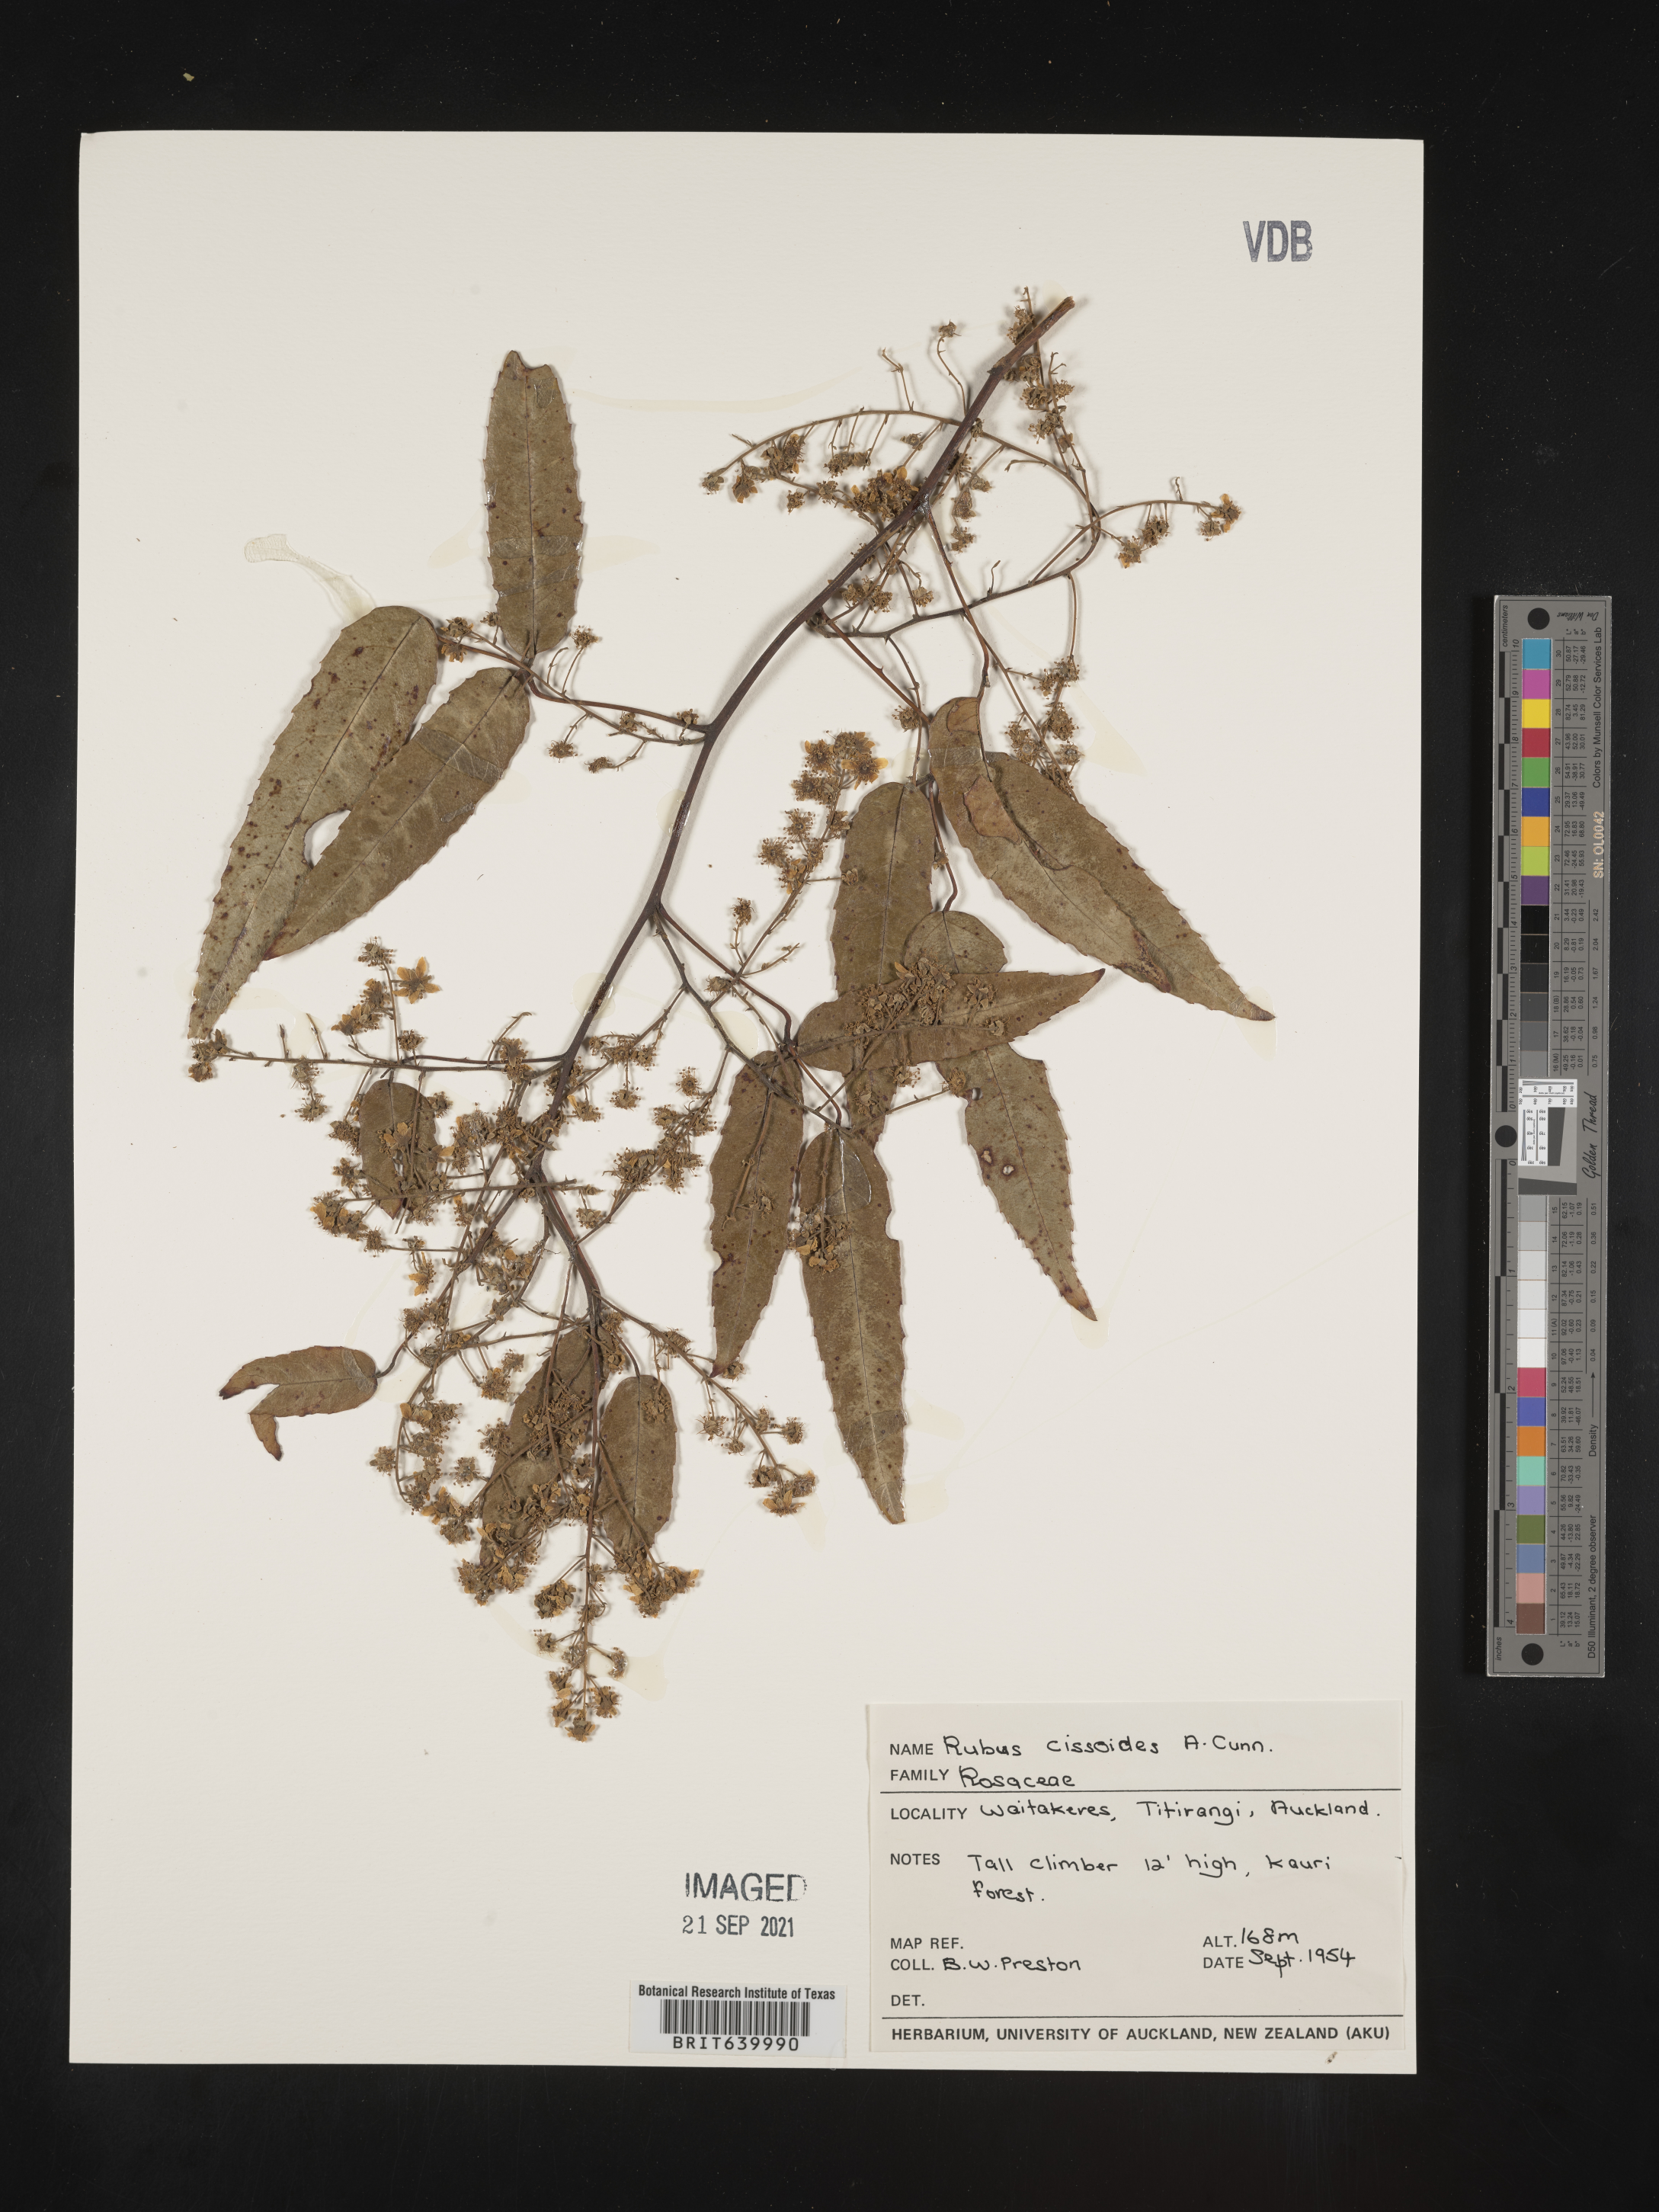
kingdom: Plantae
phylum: Tracheophyta
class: Magnoliopsida
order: Rosales
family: Rosaceae
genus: Rubus
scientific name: Rubus
